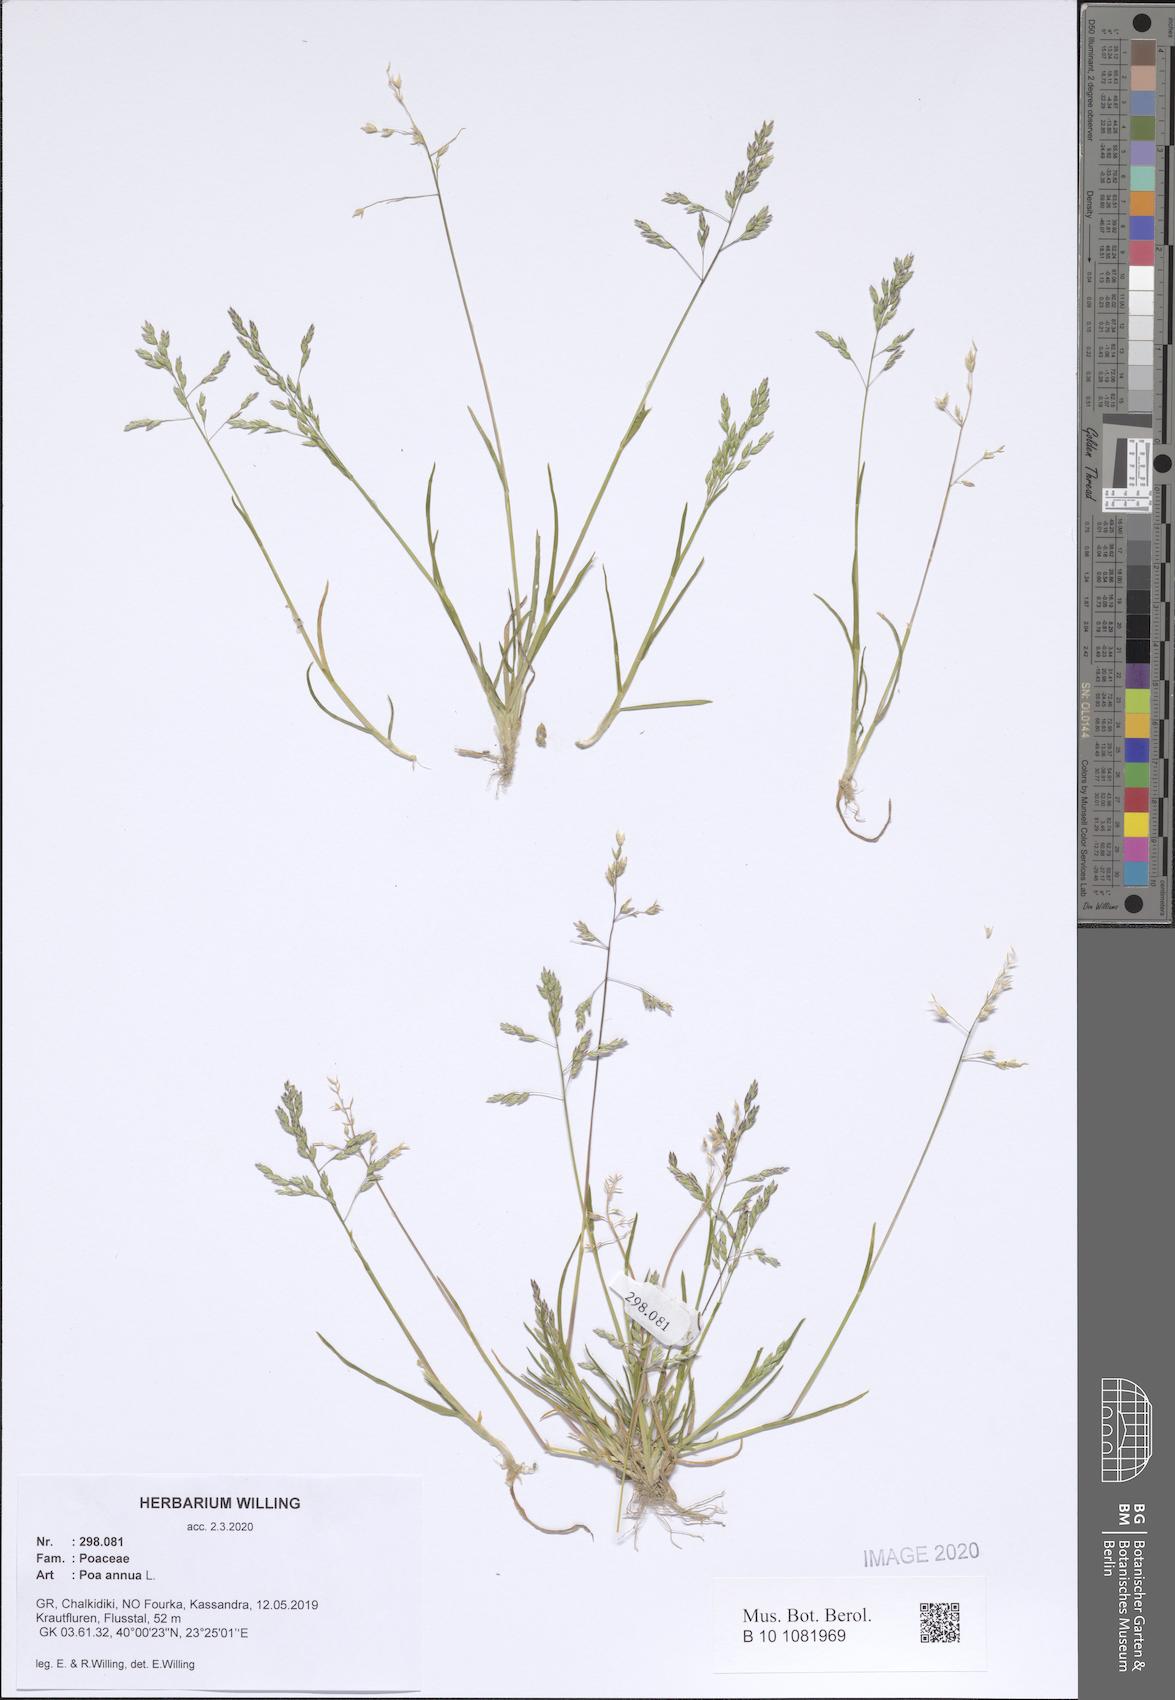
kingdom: Plantae
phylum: Tracheophyta
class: Liliopsida
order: Poales
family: Poaceae
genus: Poa
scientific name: Poa annua
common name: Annual bluegrass
